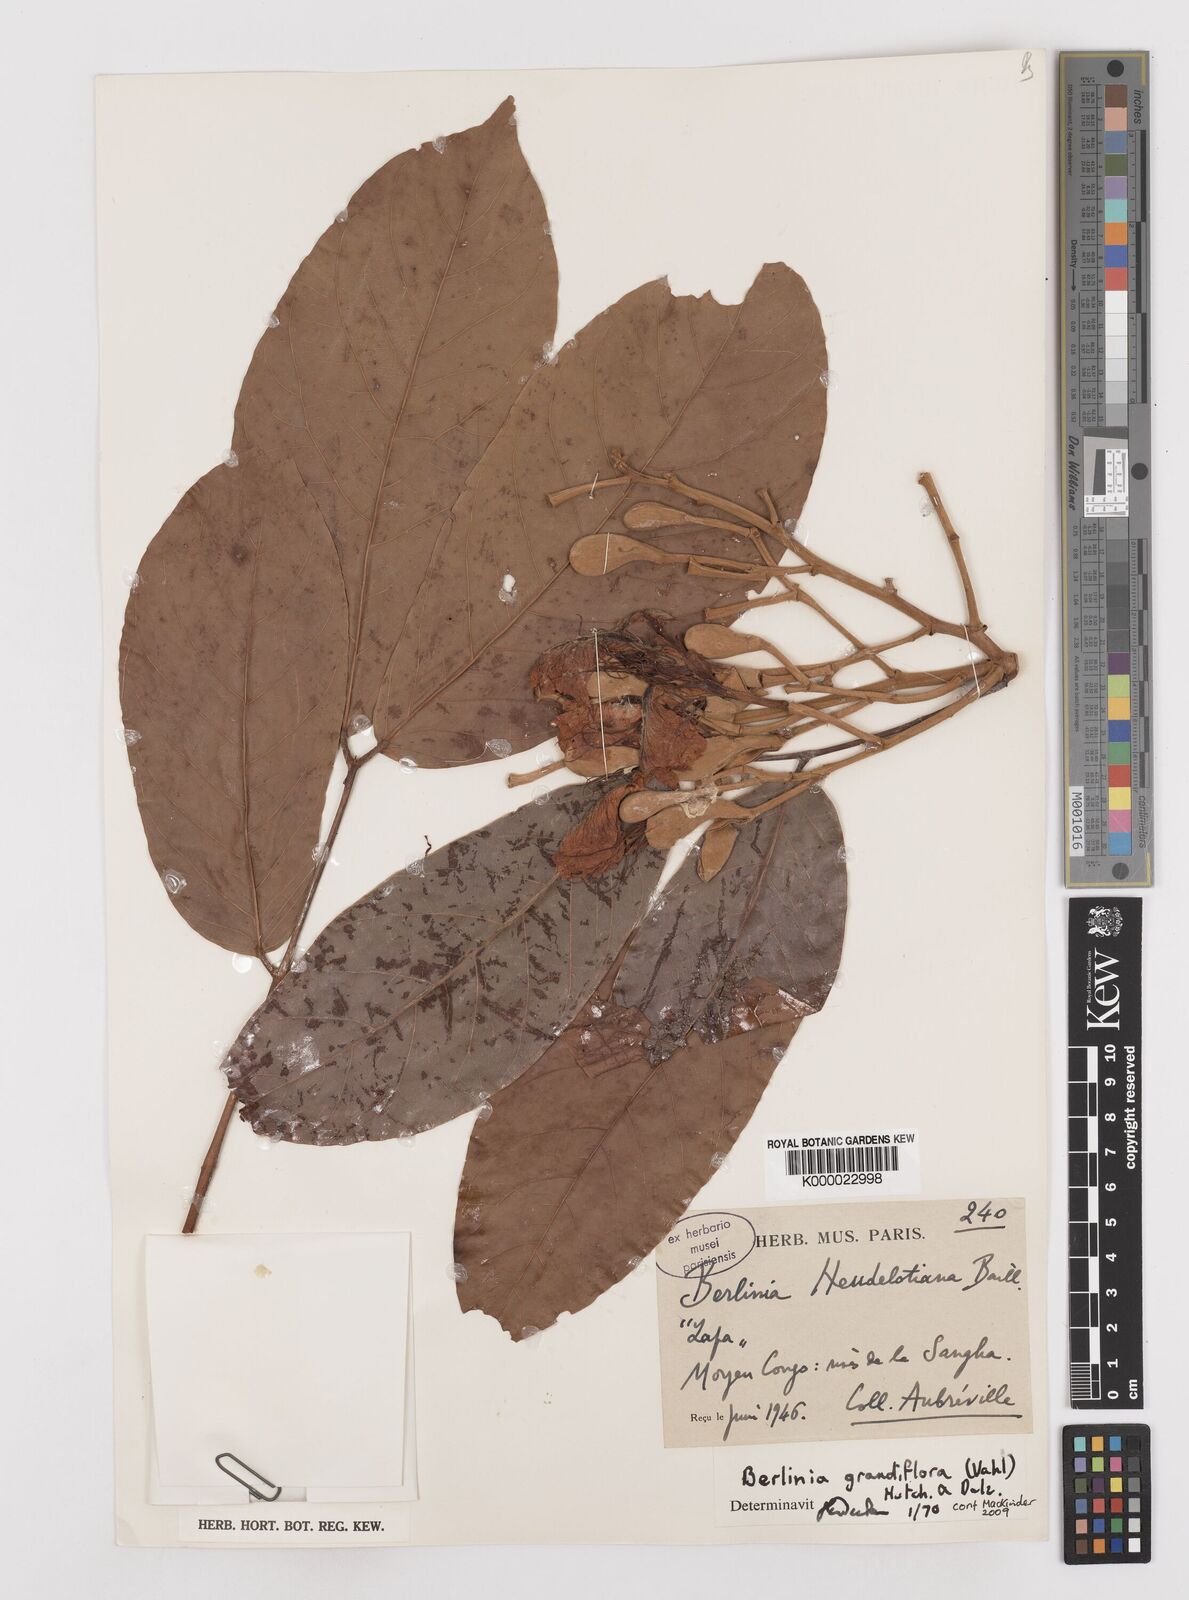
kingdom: Plantae
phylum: Tracheophyta
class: Magnoliopsida
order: Fabales
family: Fabaceae
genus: Berlinia
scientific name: Berlinia grandiflora
